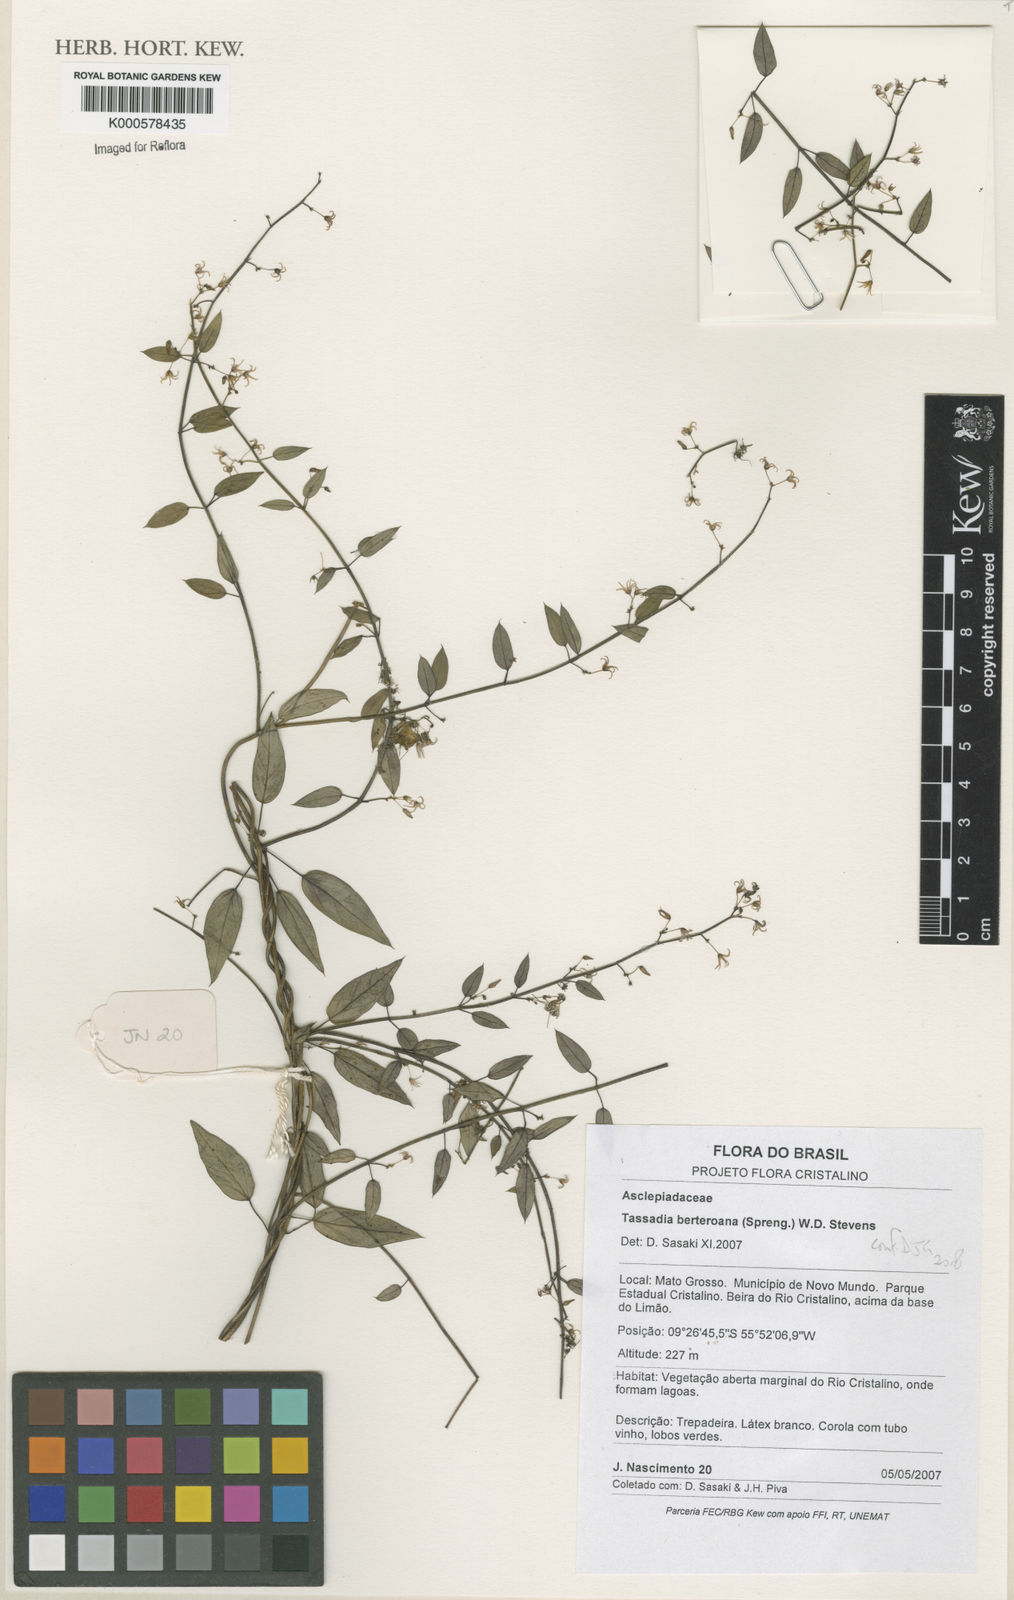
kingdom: Plantae
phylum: Tracheophyta
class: Magnoliopsida
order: Gentianales
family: Apocynaceae
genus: Tassadia
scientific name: Tassadia
